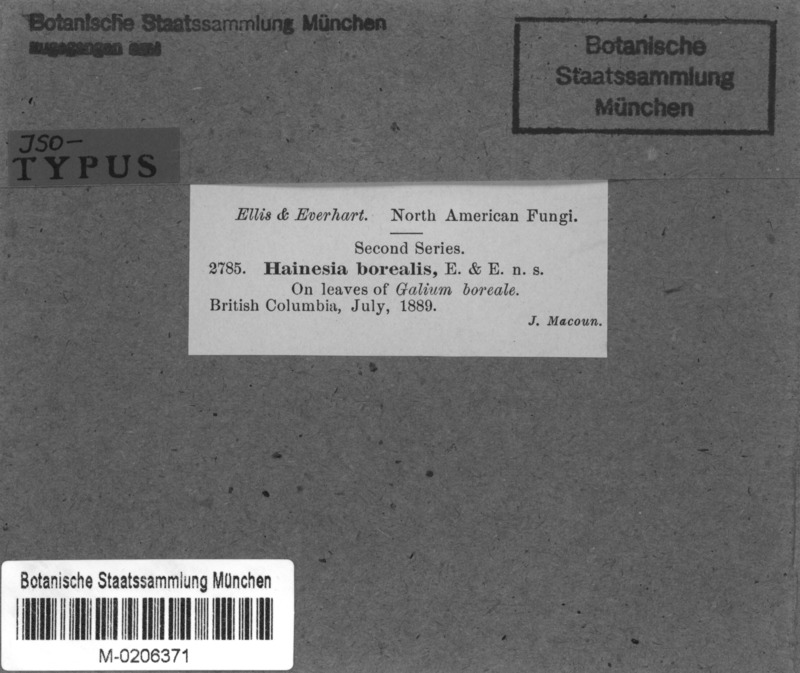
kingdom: Fungi
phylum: Ascomycota
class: Leotiomycetes
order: Chaetomellales
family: Chaetomellaceae
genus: Hainesia
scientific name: Hainesia borealis
